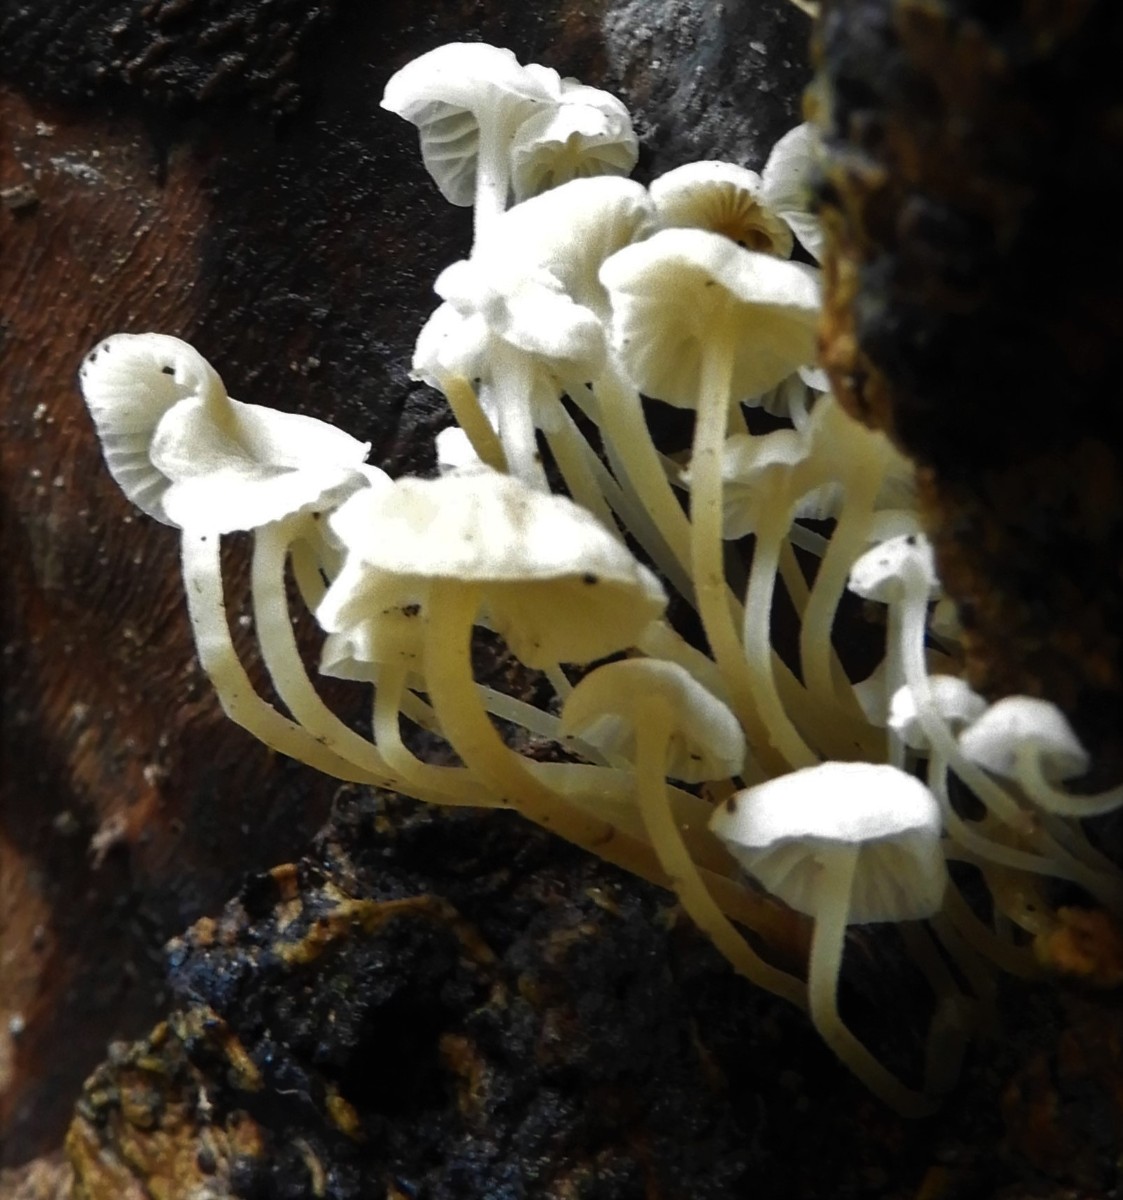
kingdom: Fungi
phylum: Basidiomycota
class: Agaricomycetes
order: Agaricales
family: Porotheleaceae
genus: Phloeomana
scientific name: Phloeomana speirea
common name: kvist-huesvamp
